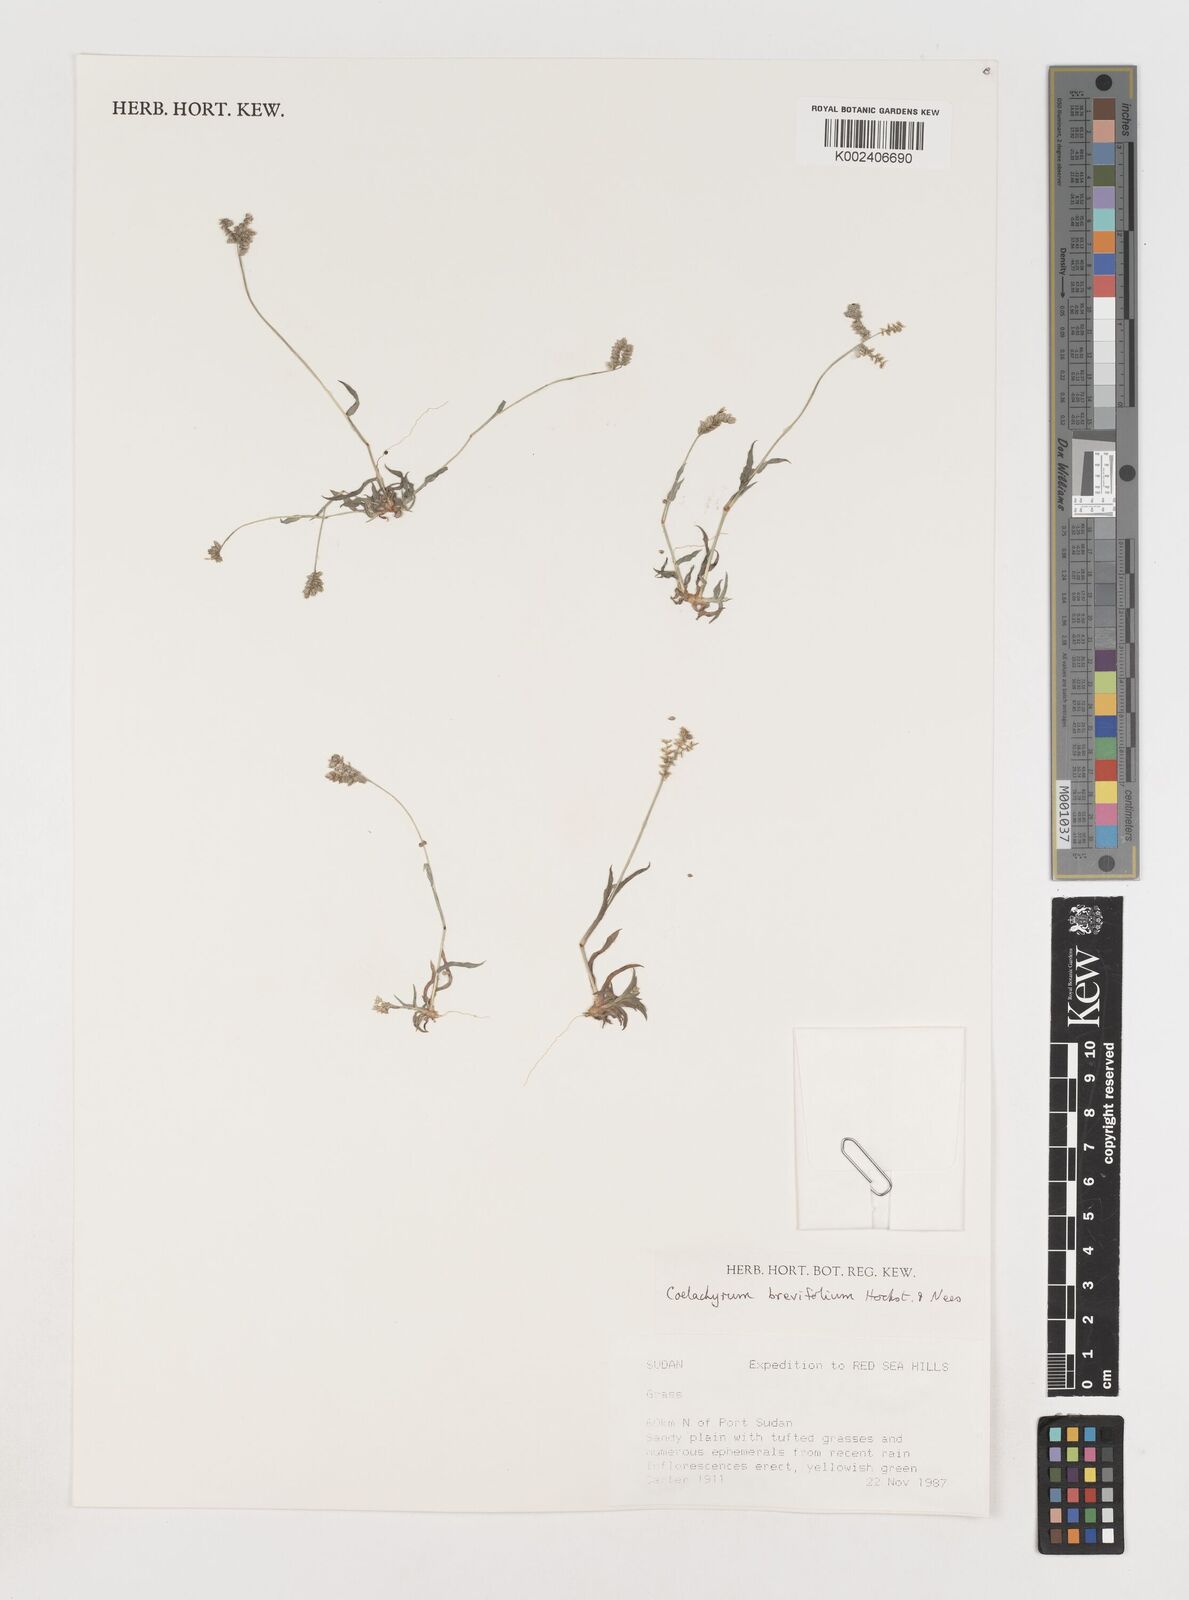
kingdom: Plantae
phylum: Tracheophyta
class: Liliopsida
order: Poales
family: Poaceae
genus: Coelachyrum
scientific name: Coelachyrum brevifolium
